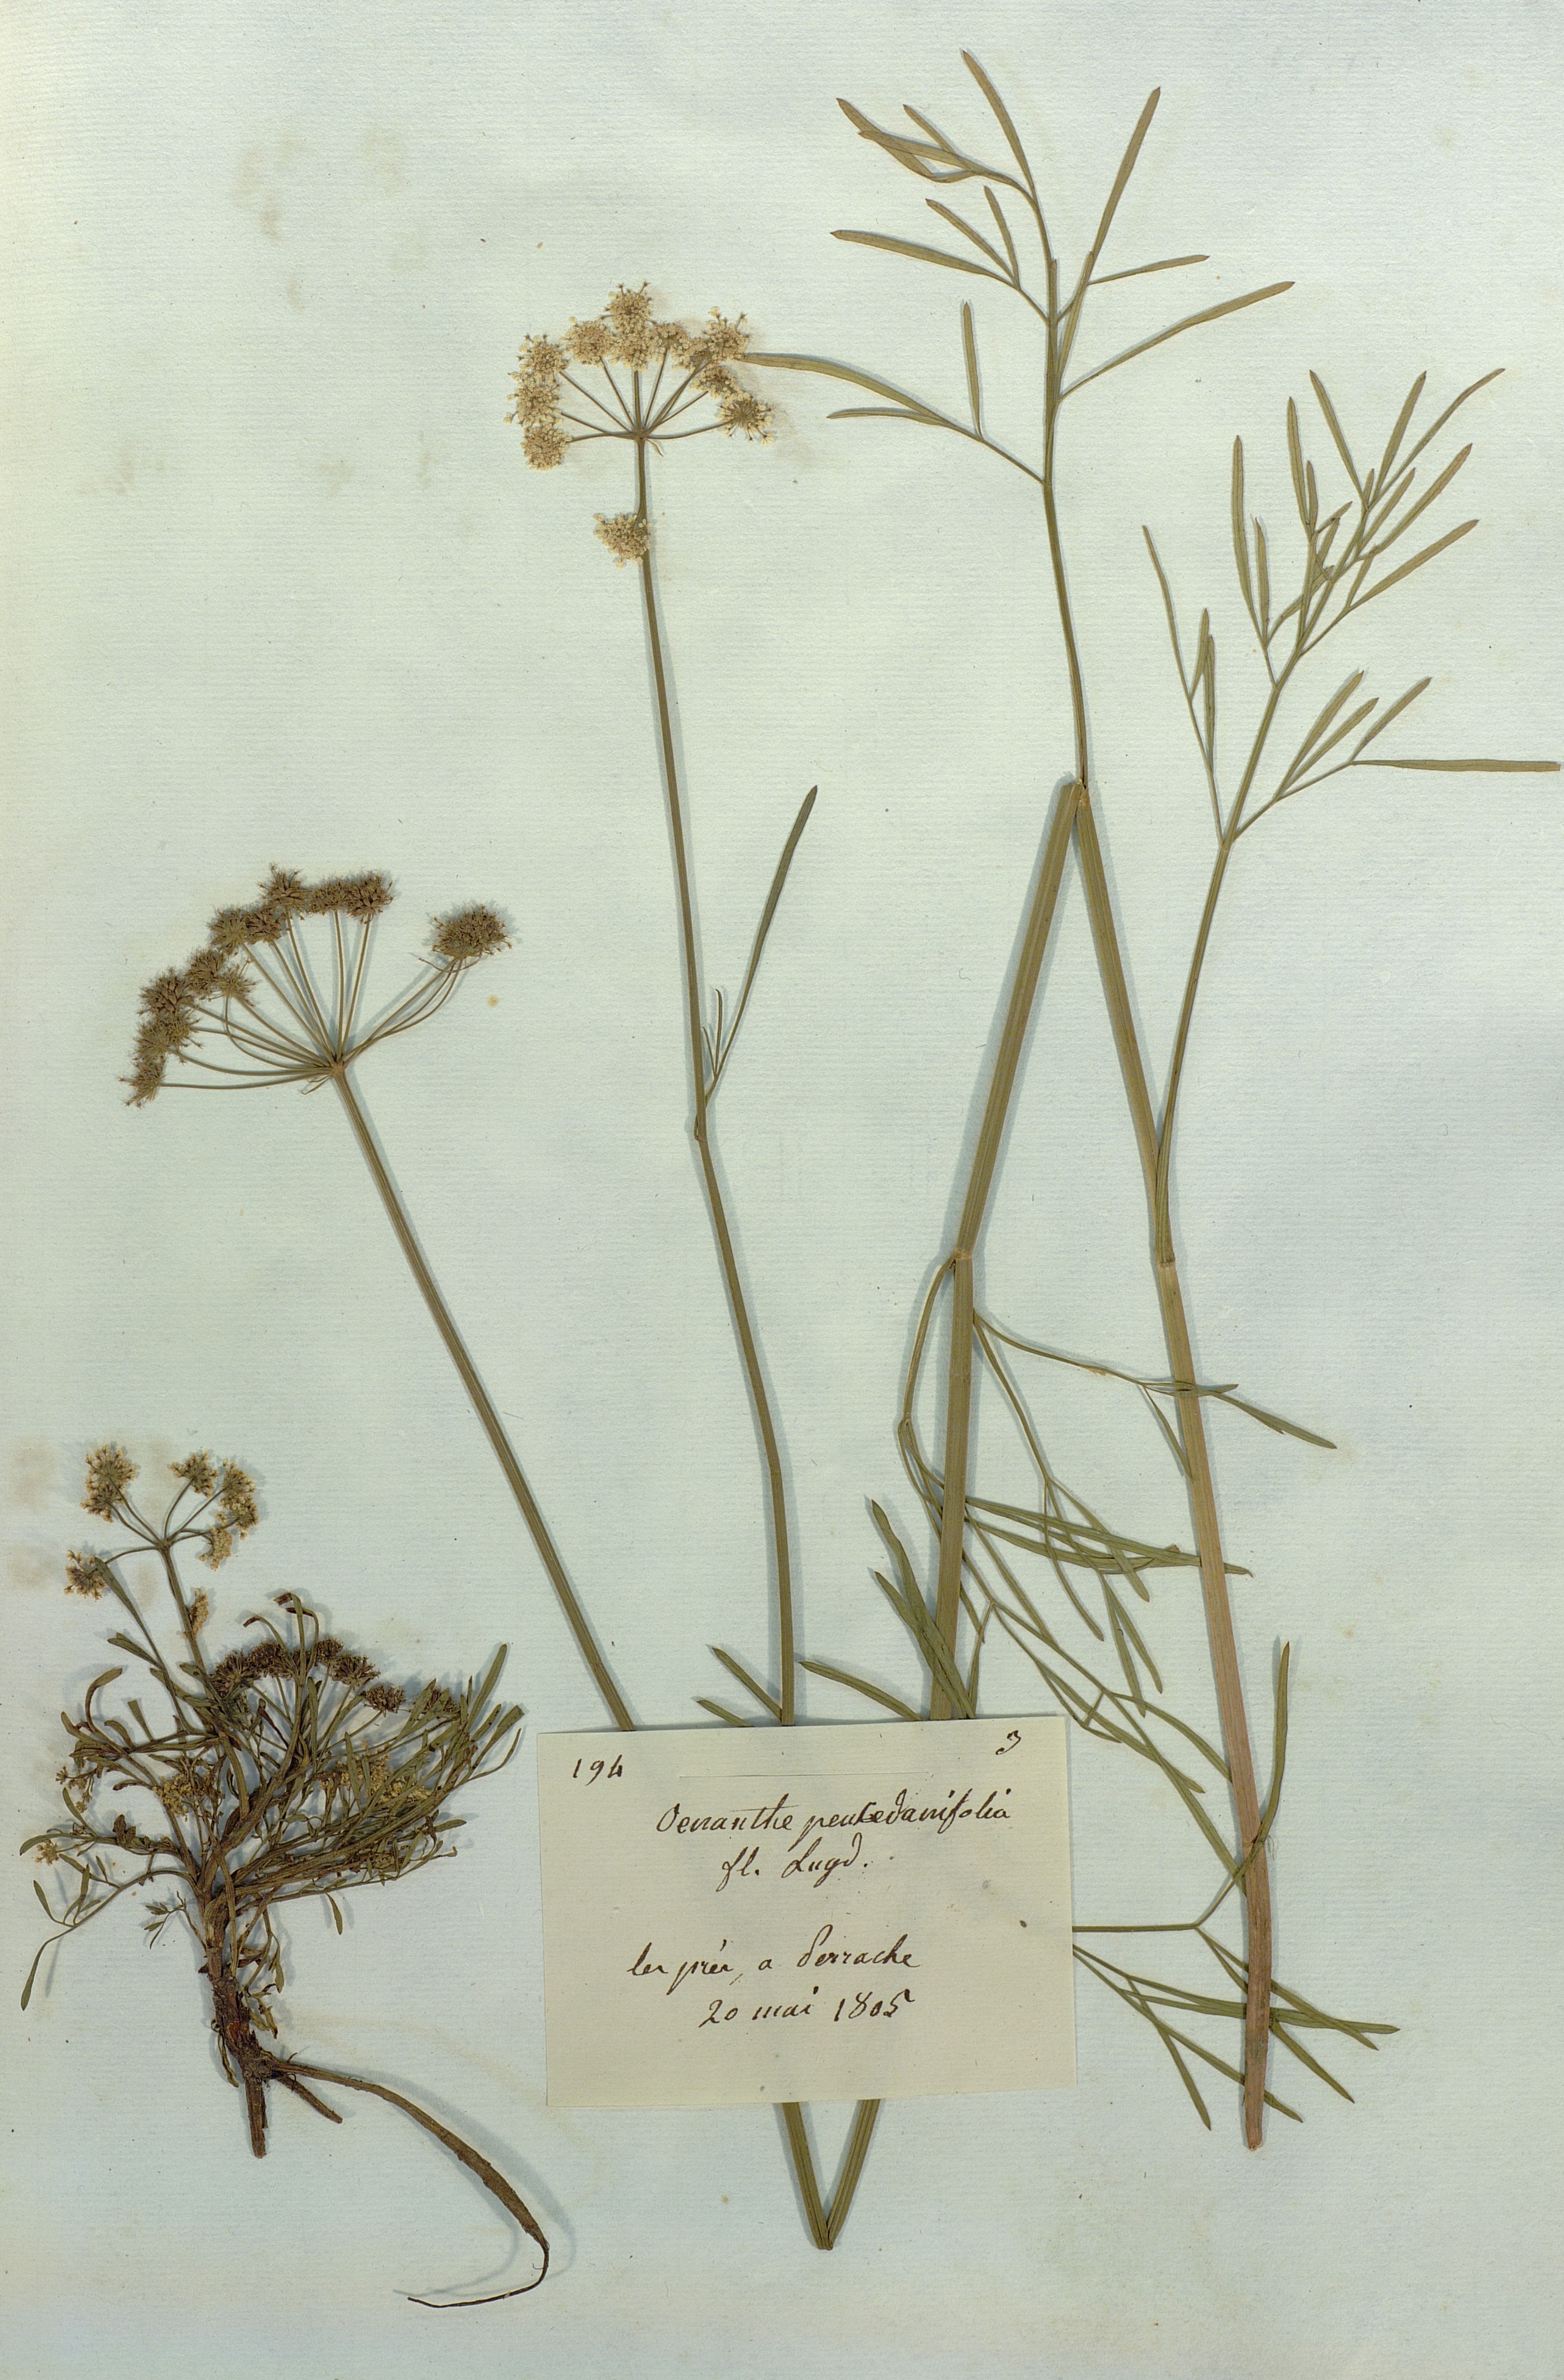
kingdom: Plantae
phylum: Tracheophyta
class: Magnoliopsida
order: Apiales
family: Apiaceae
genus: Oenanthe
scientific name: Oenanthe peucedanifolia
